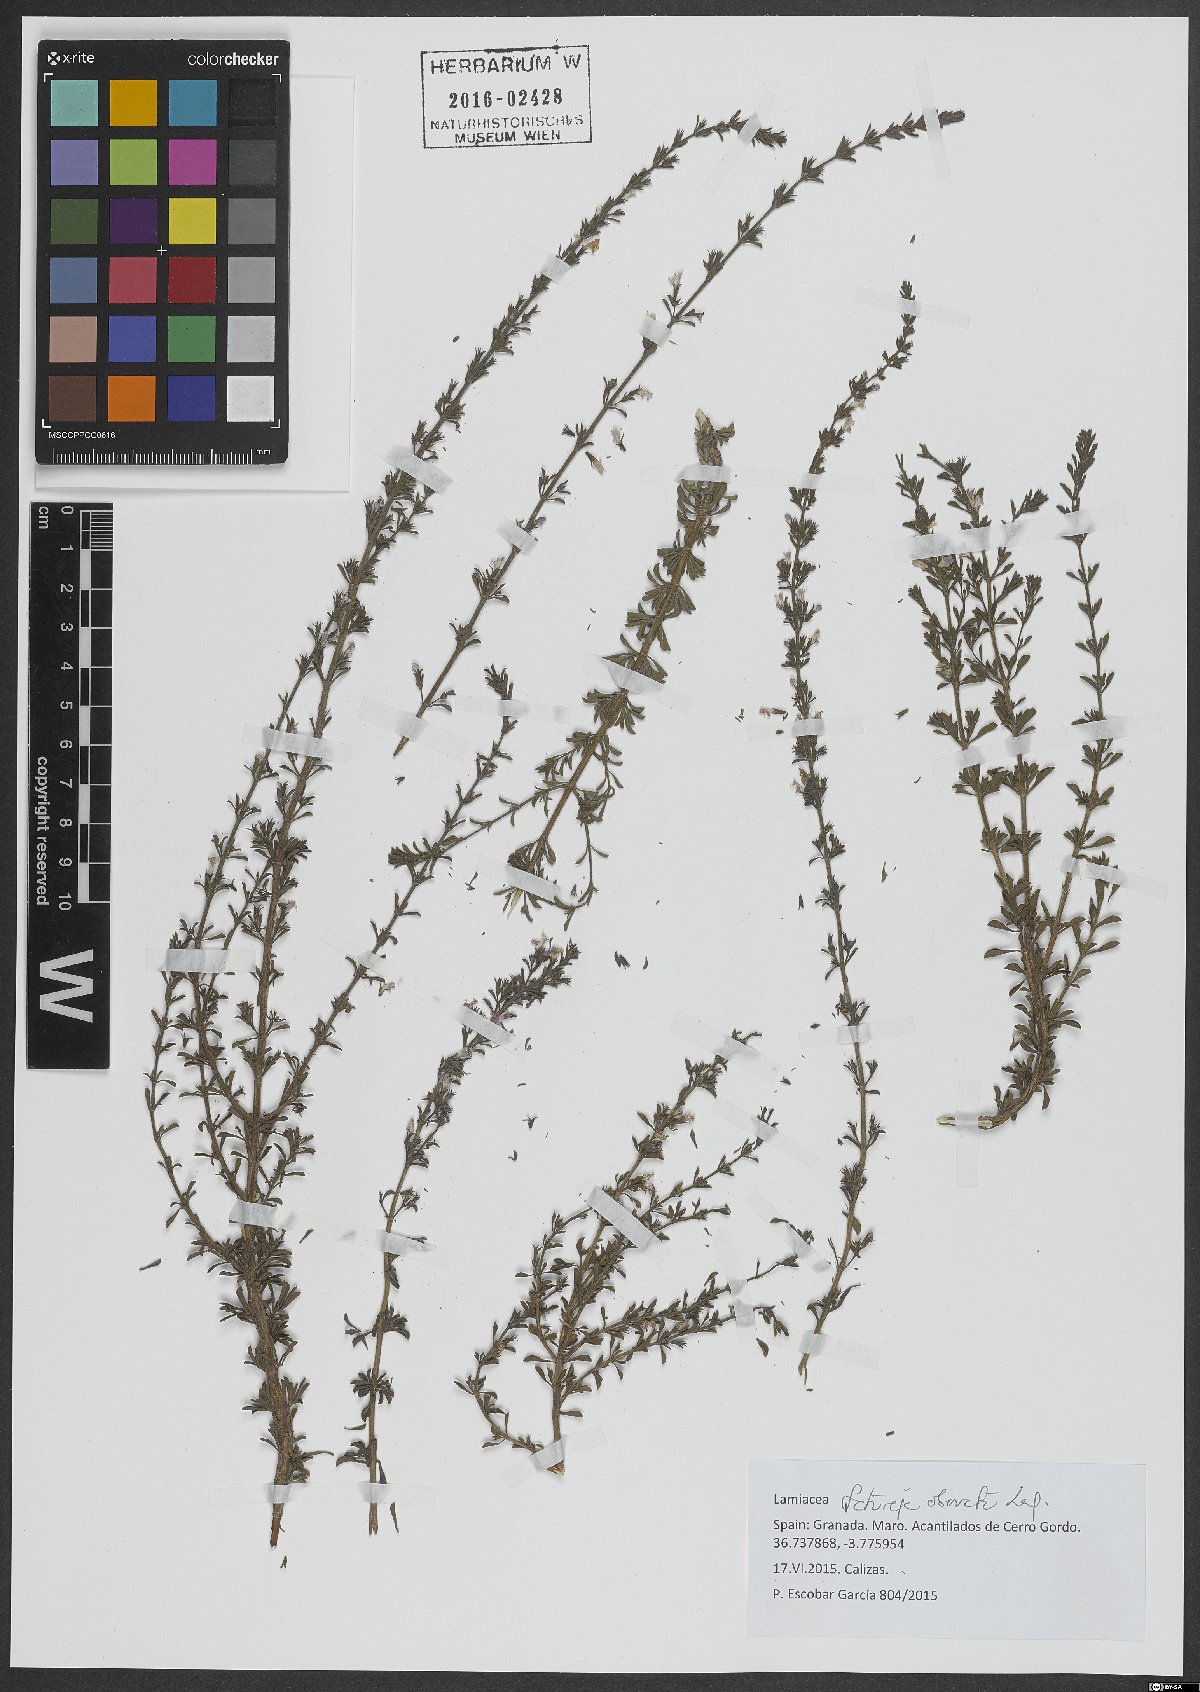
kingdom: Plantae
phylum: Tracheophyta
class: Magnoliopsida
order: Lamiales
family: Lamiaceae
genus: Satureja
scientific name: Satureja cuneifolia
